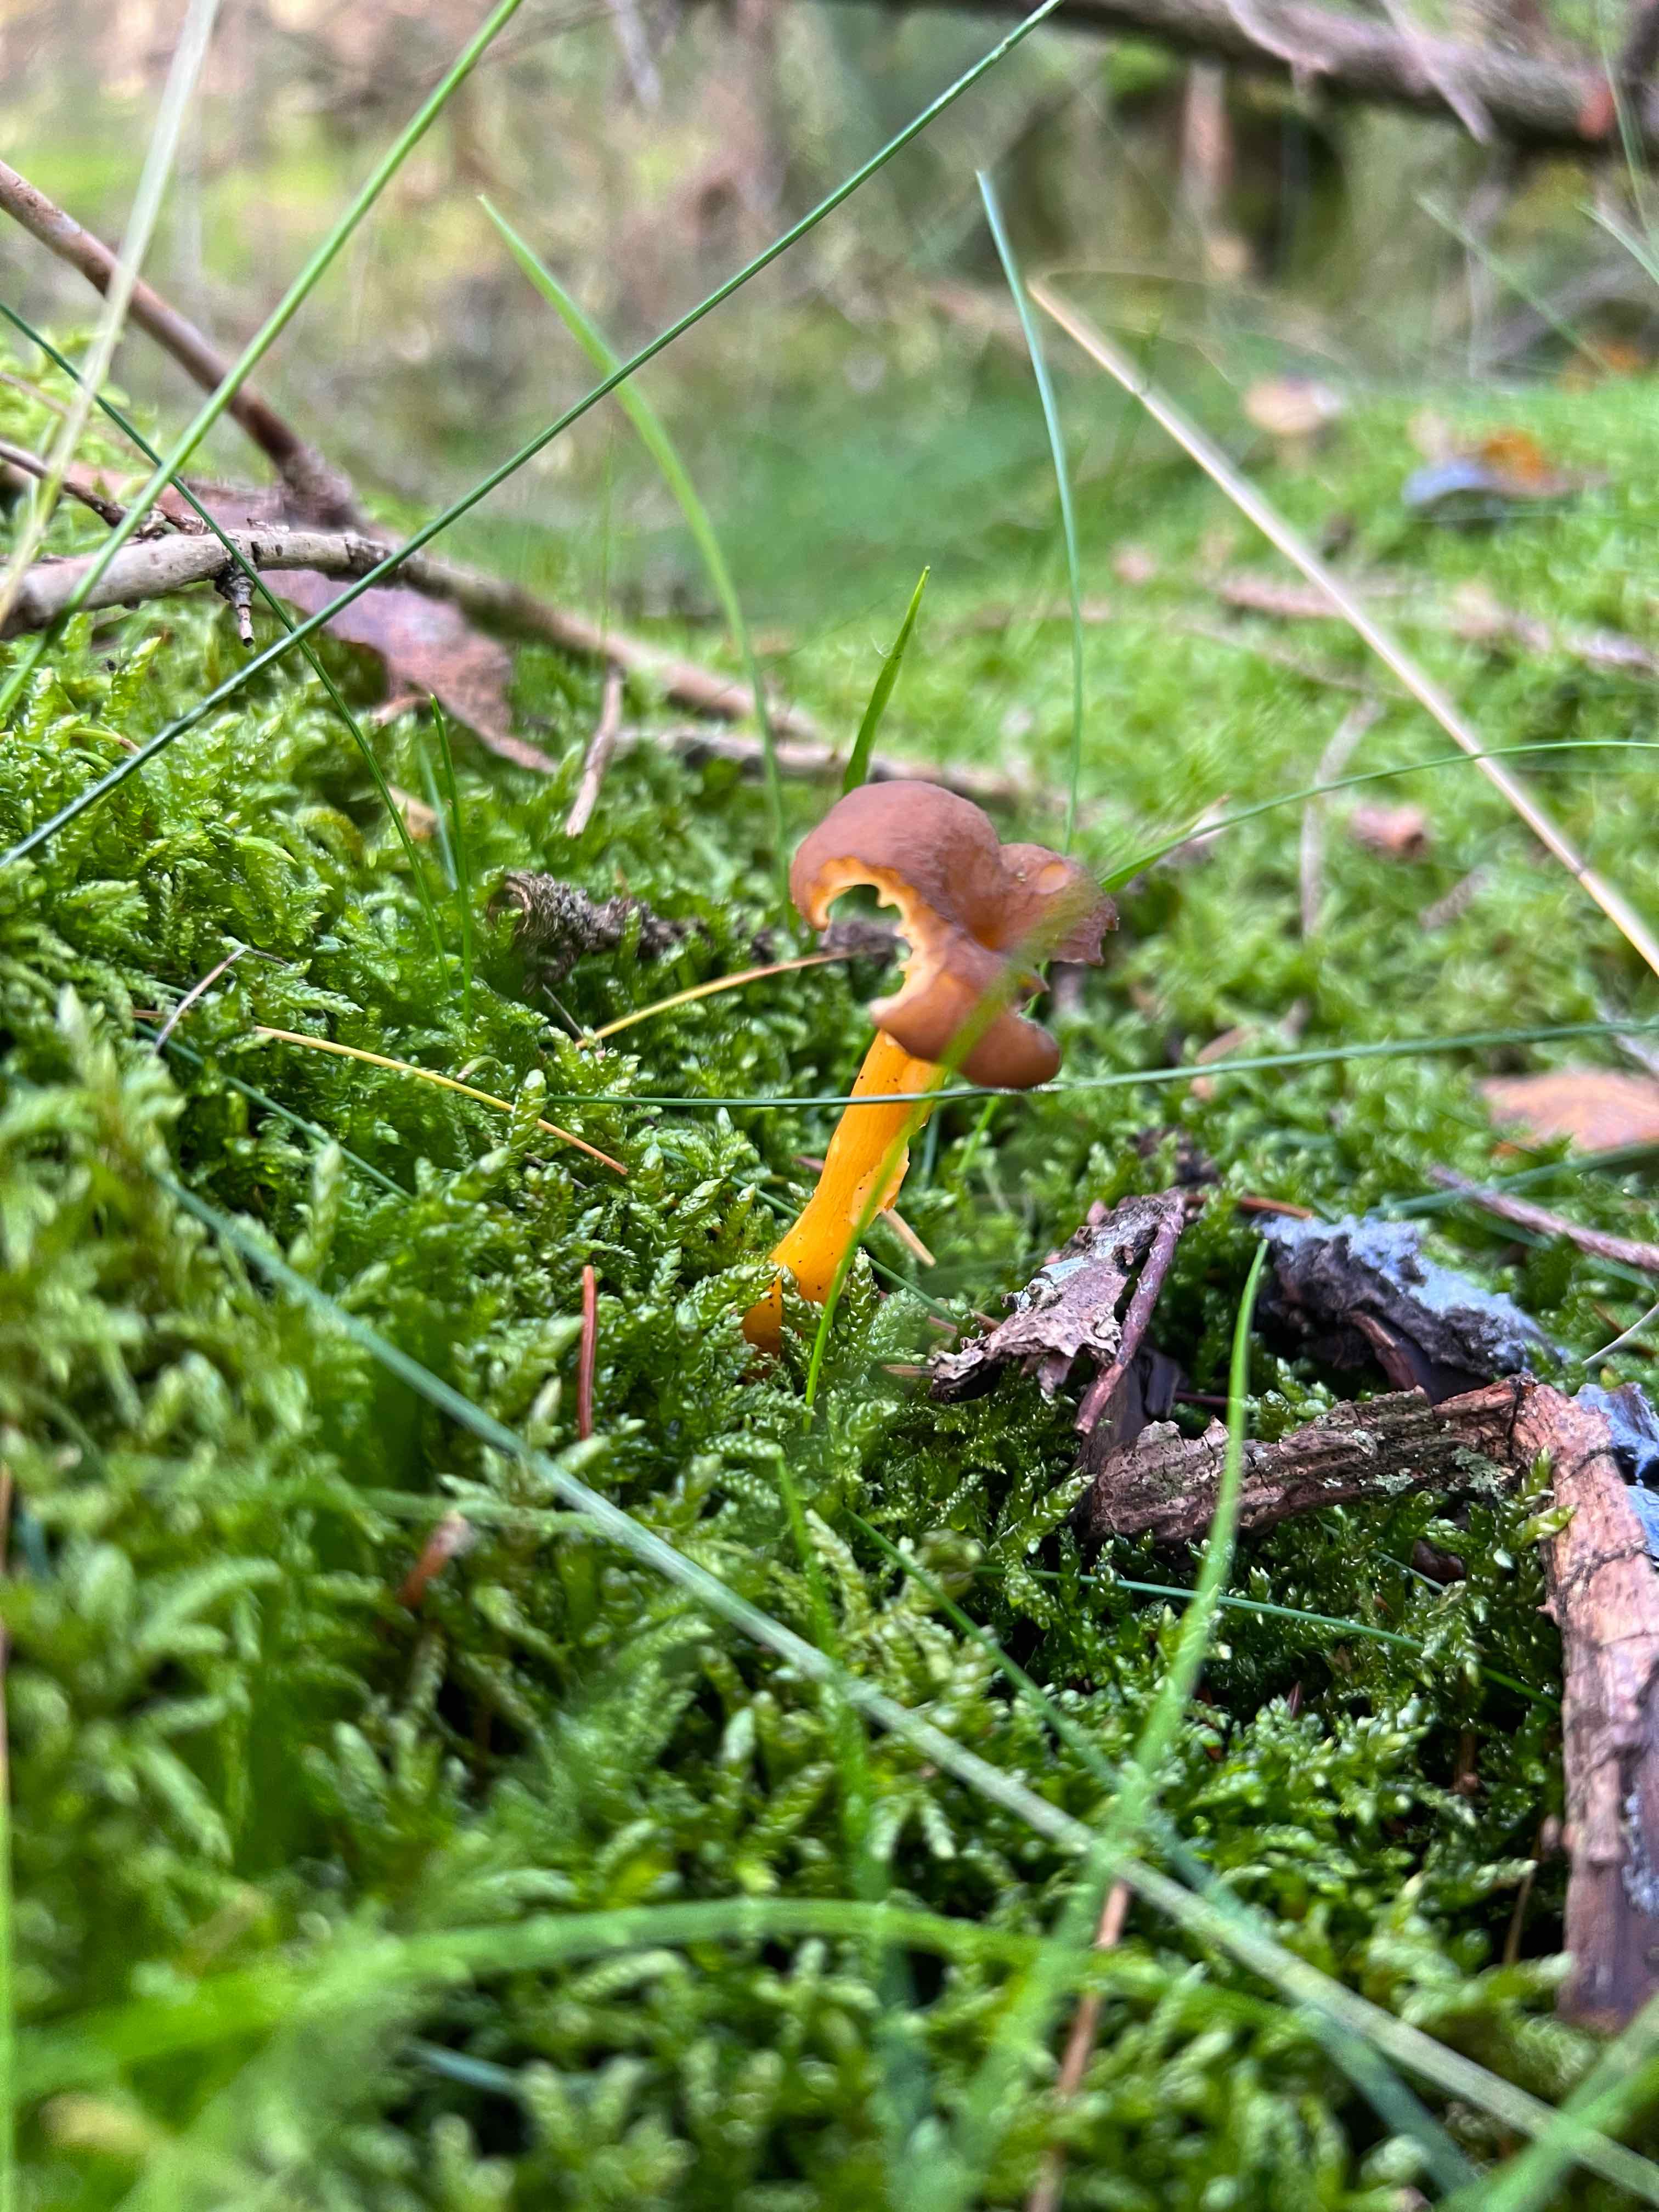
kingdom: Fungi
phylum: Basidiomycota
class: Agaricomycetes
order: Cantharellales
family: Hydnaceae
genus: Craterellus
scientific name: Craterellus tubaeformis
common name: tragt-kantarel
